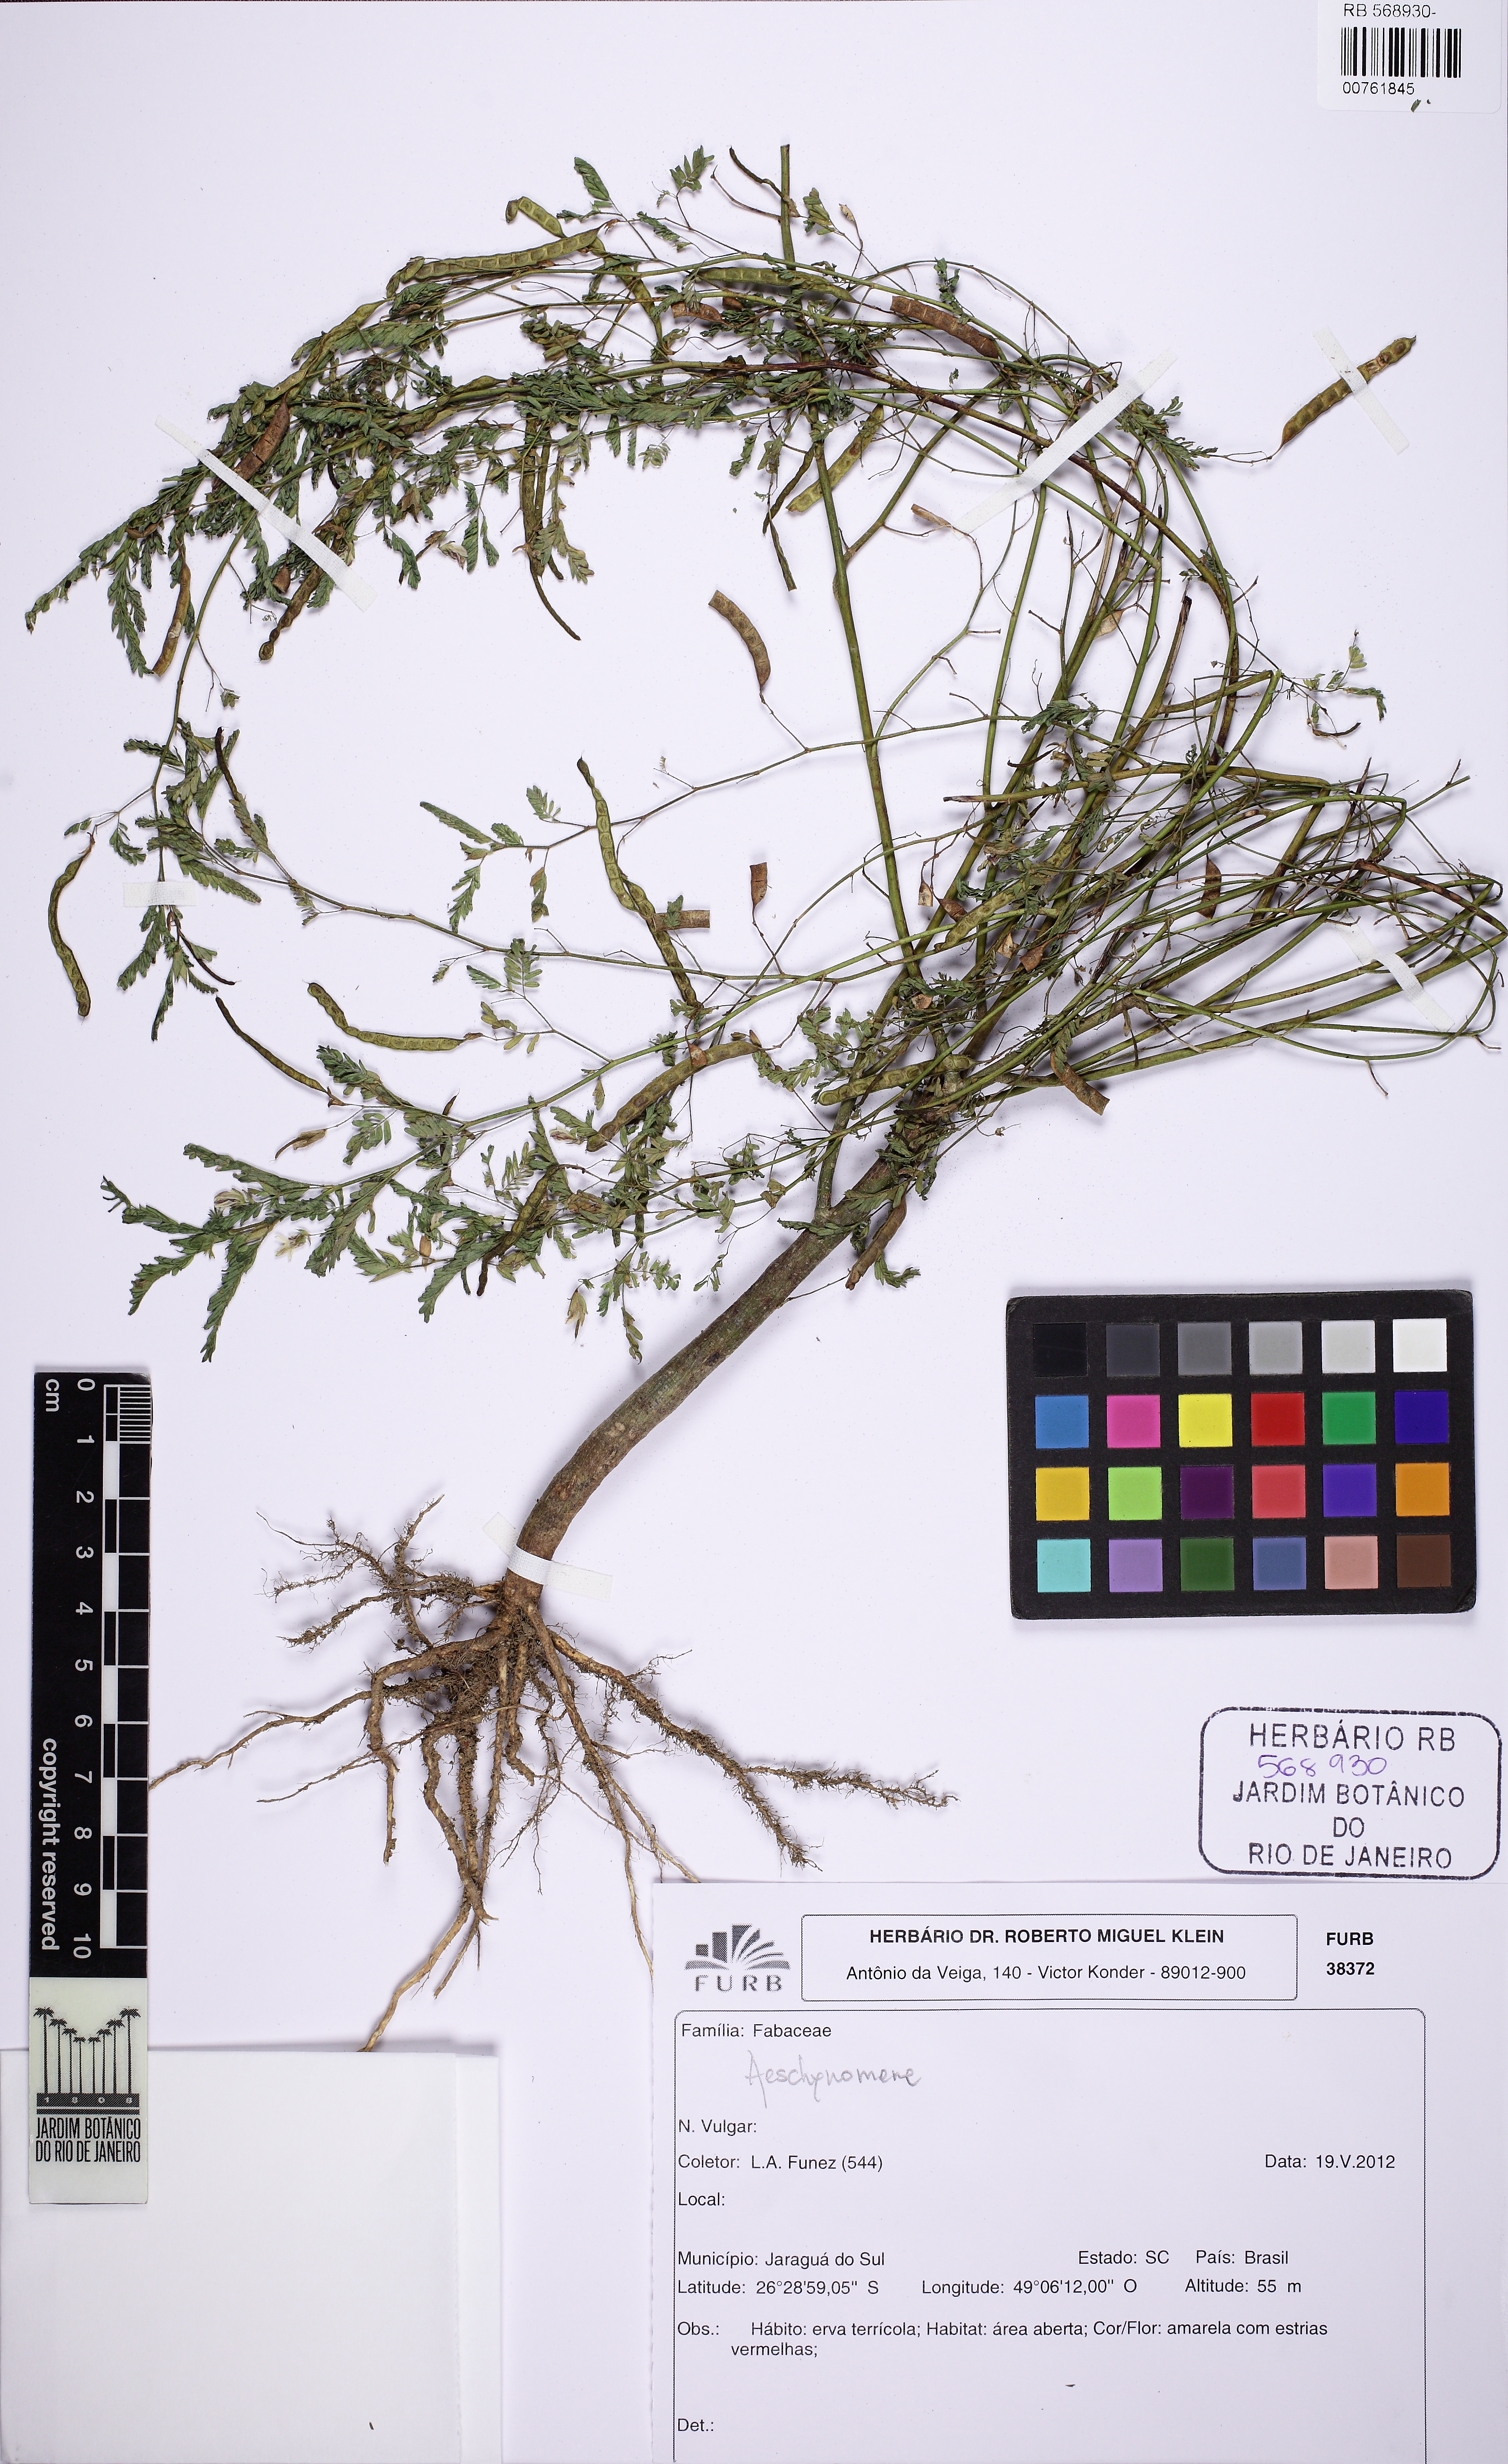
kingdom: Plantae
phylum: Tracheophyta
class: Magnoliopsida
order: Fabales
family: Fabaceae
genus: Aeschynomene
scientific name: Aeschynomene
